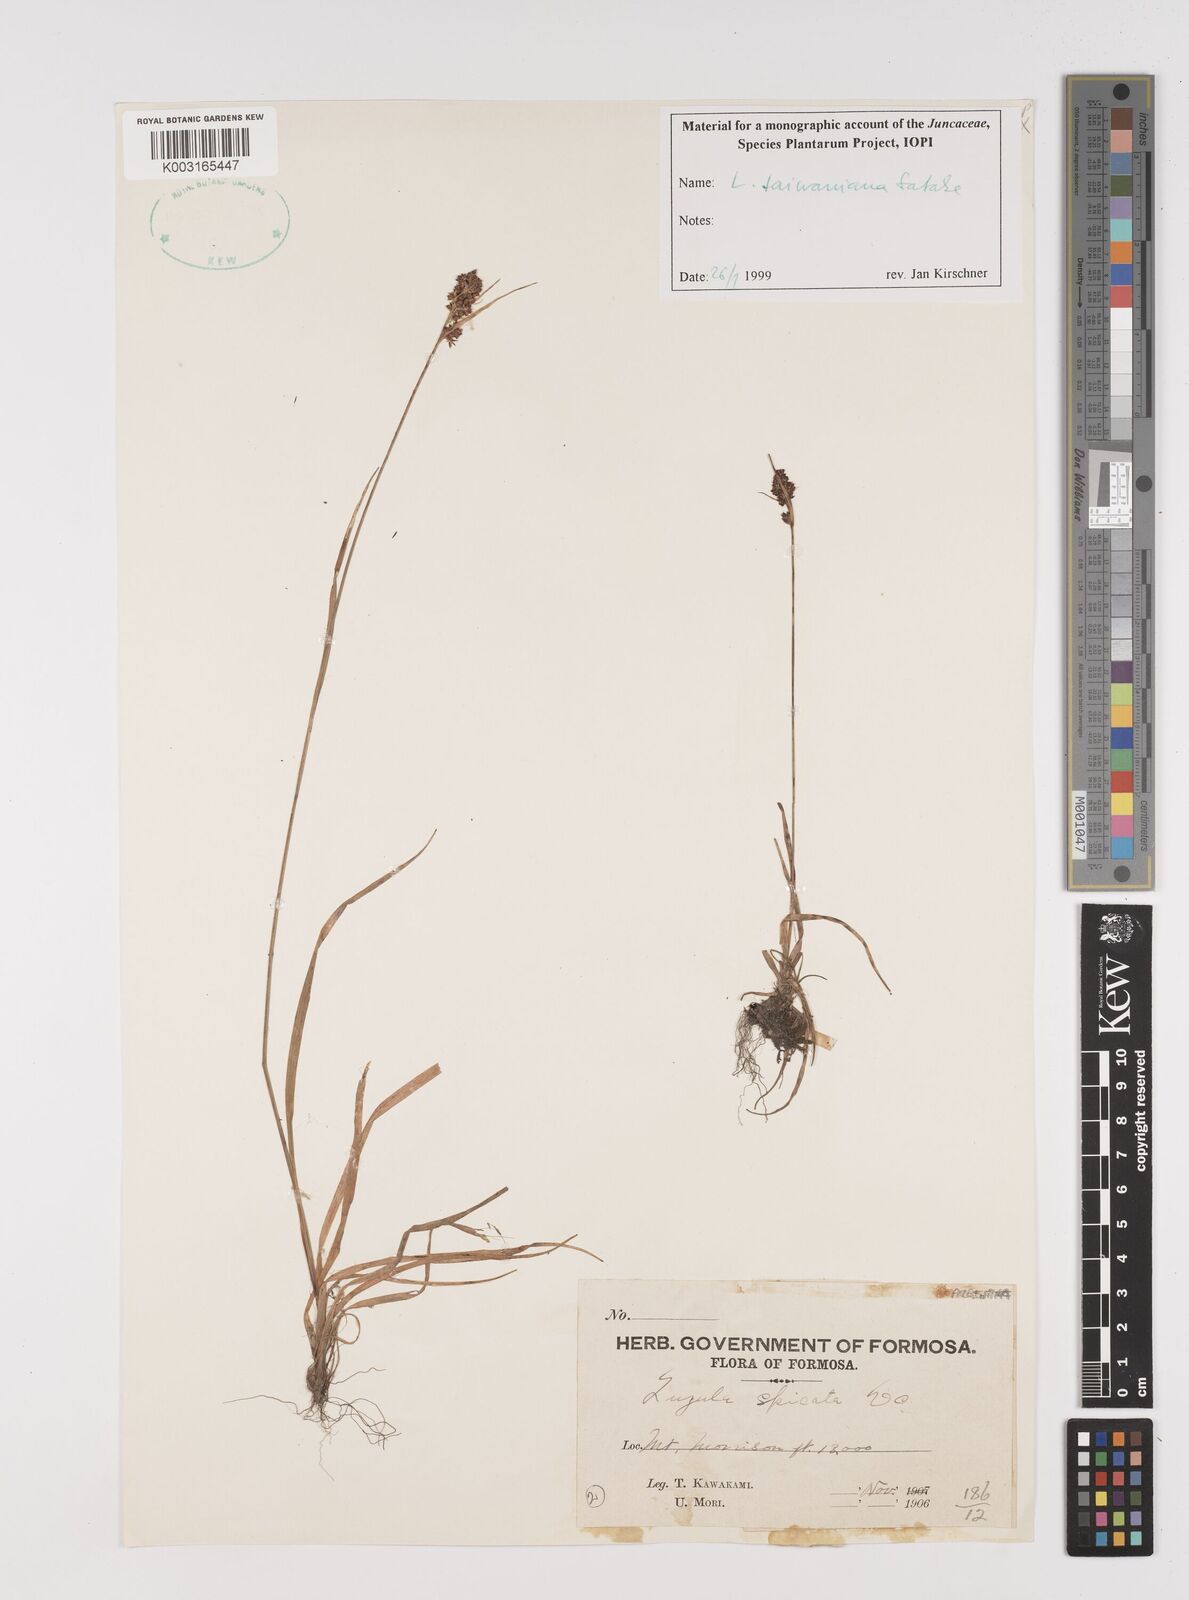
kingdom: Plantae
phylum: Tracheophyta
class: Liliopsida
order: Poales
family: Juncaceae
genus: Luzula
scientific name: Luzula taiwaniana
